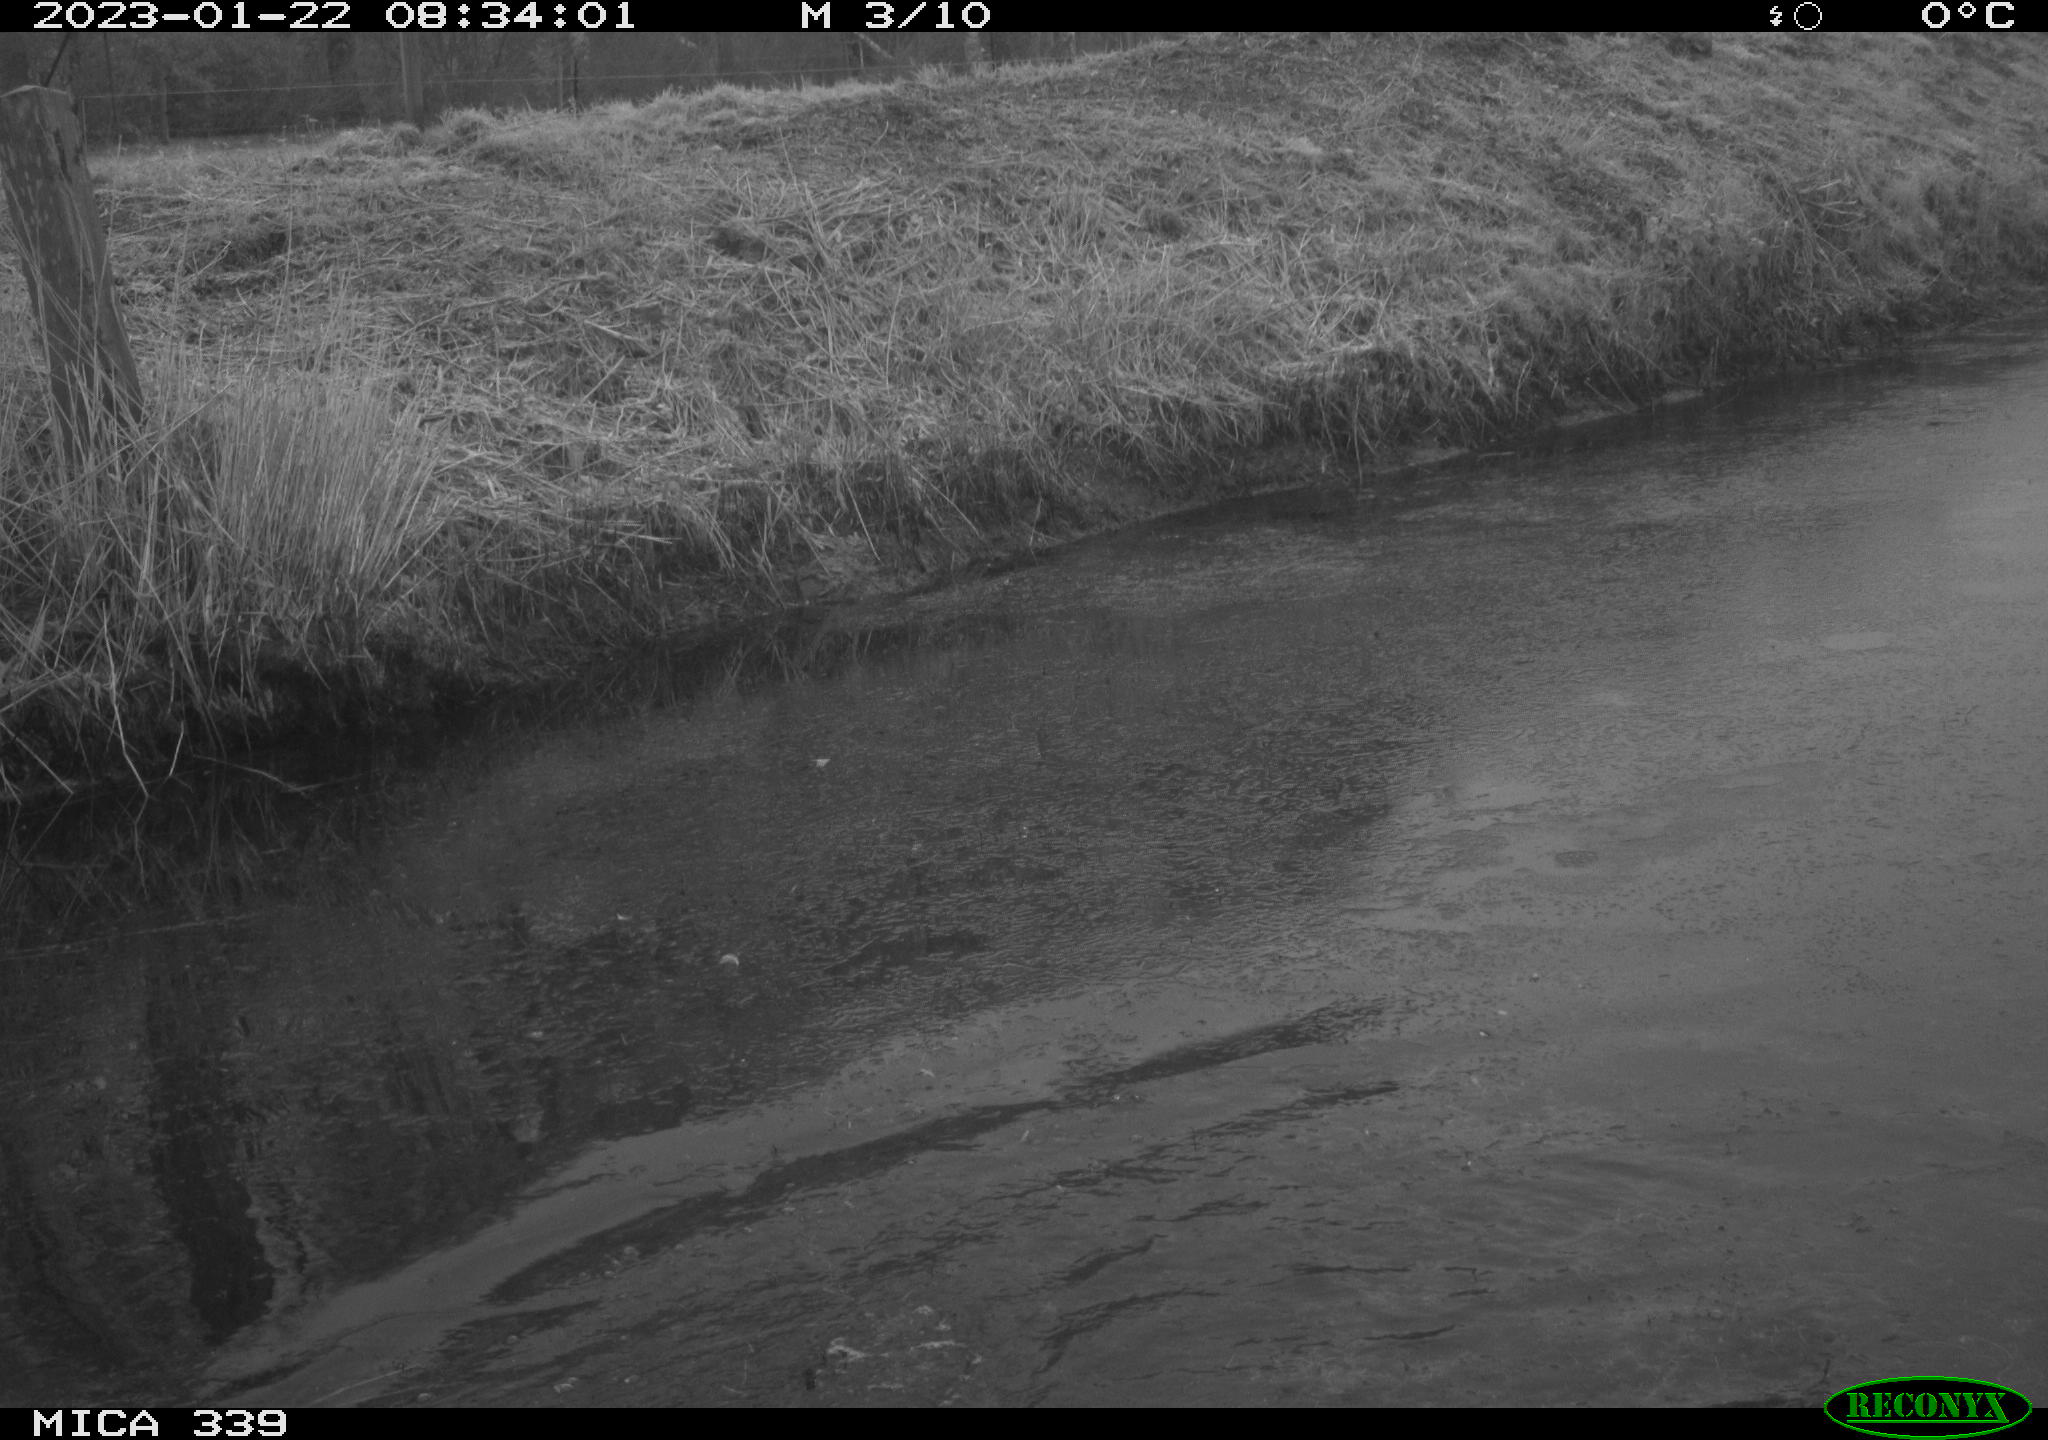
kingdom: Animalia
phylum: Chordata
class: Aves
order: Suliformes
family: Phalacrocoracidae
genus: Phalacrocorax
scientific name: Phalacrocorax carbo
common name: Great cormorant
